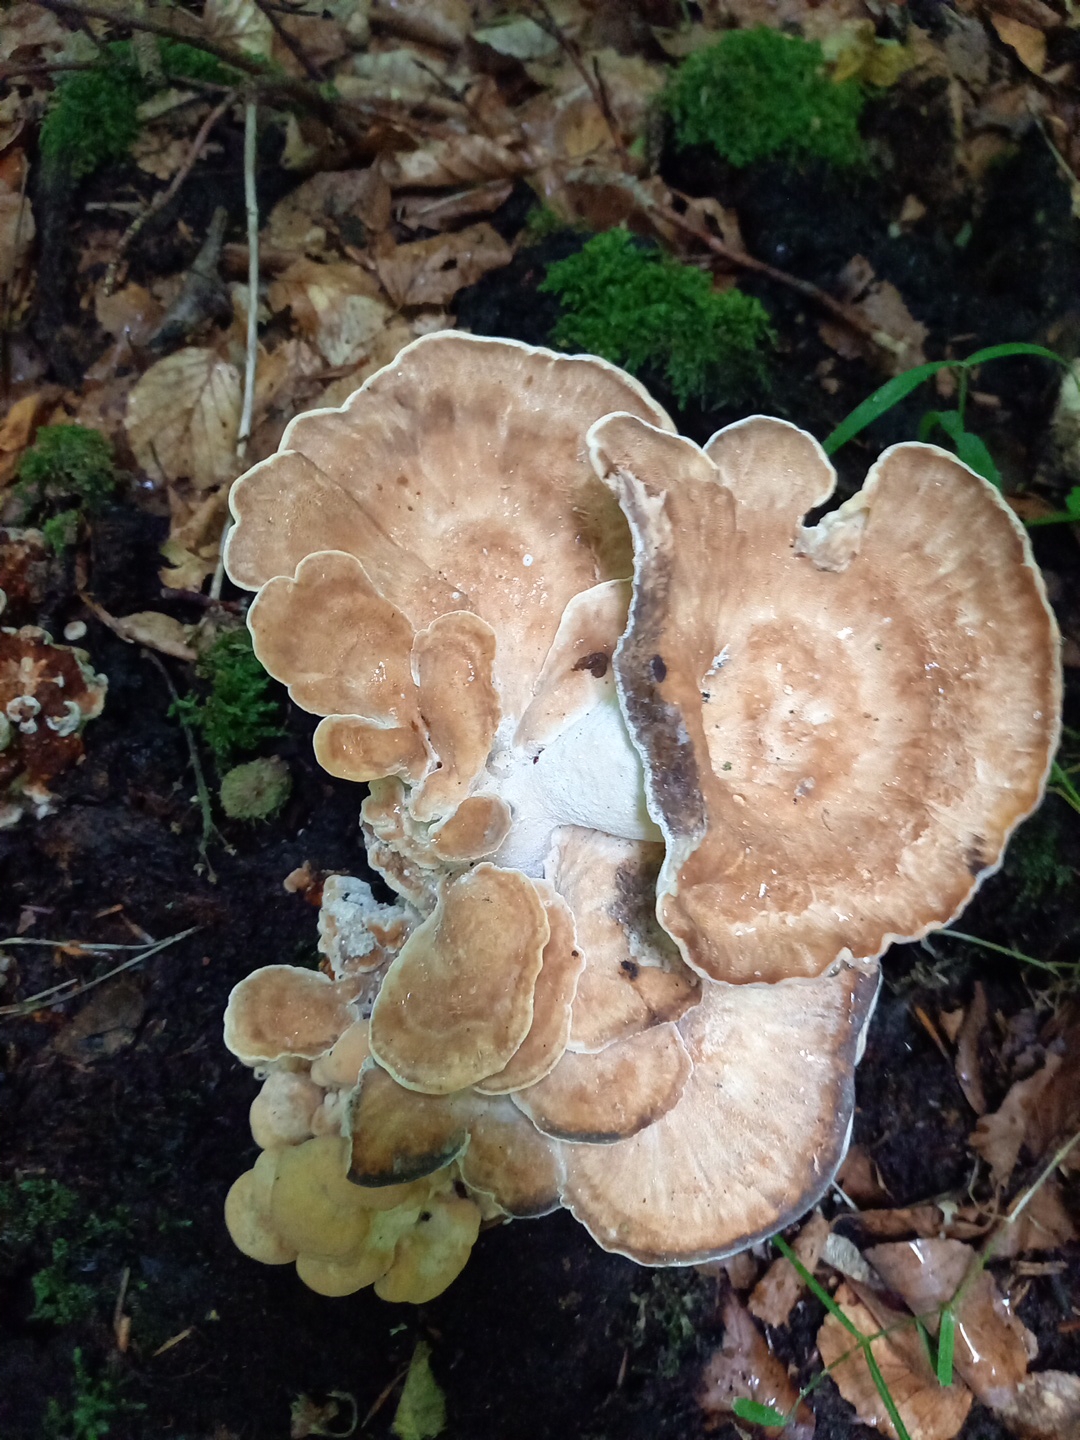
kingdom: Fungi
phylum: Basidiomycota
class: Agaricomycetes
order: Polyporales
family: Meripilaceae
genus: Meripilus
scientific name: Meripilus giganteus
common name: kæmpeporesvamp
